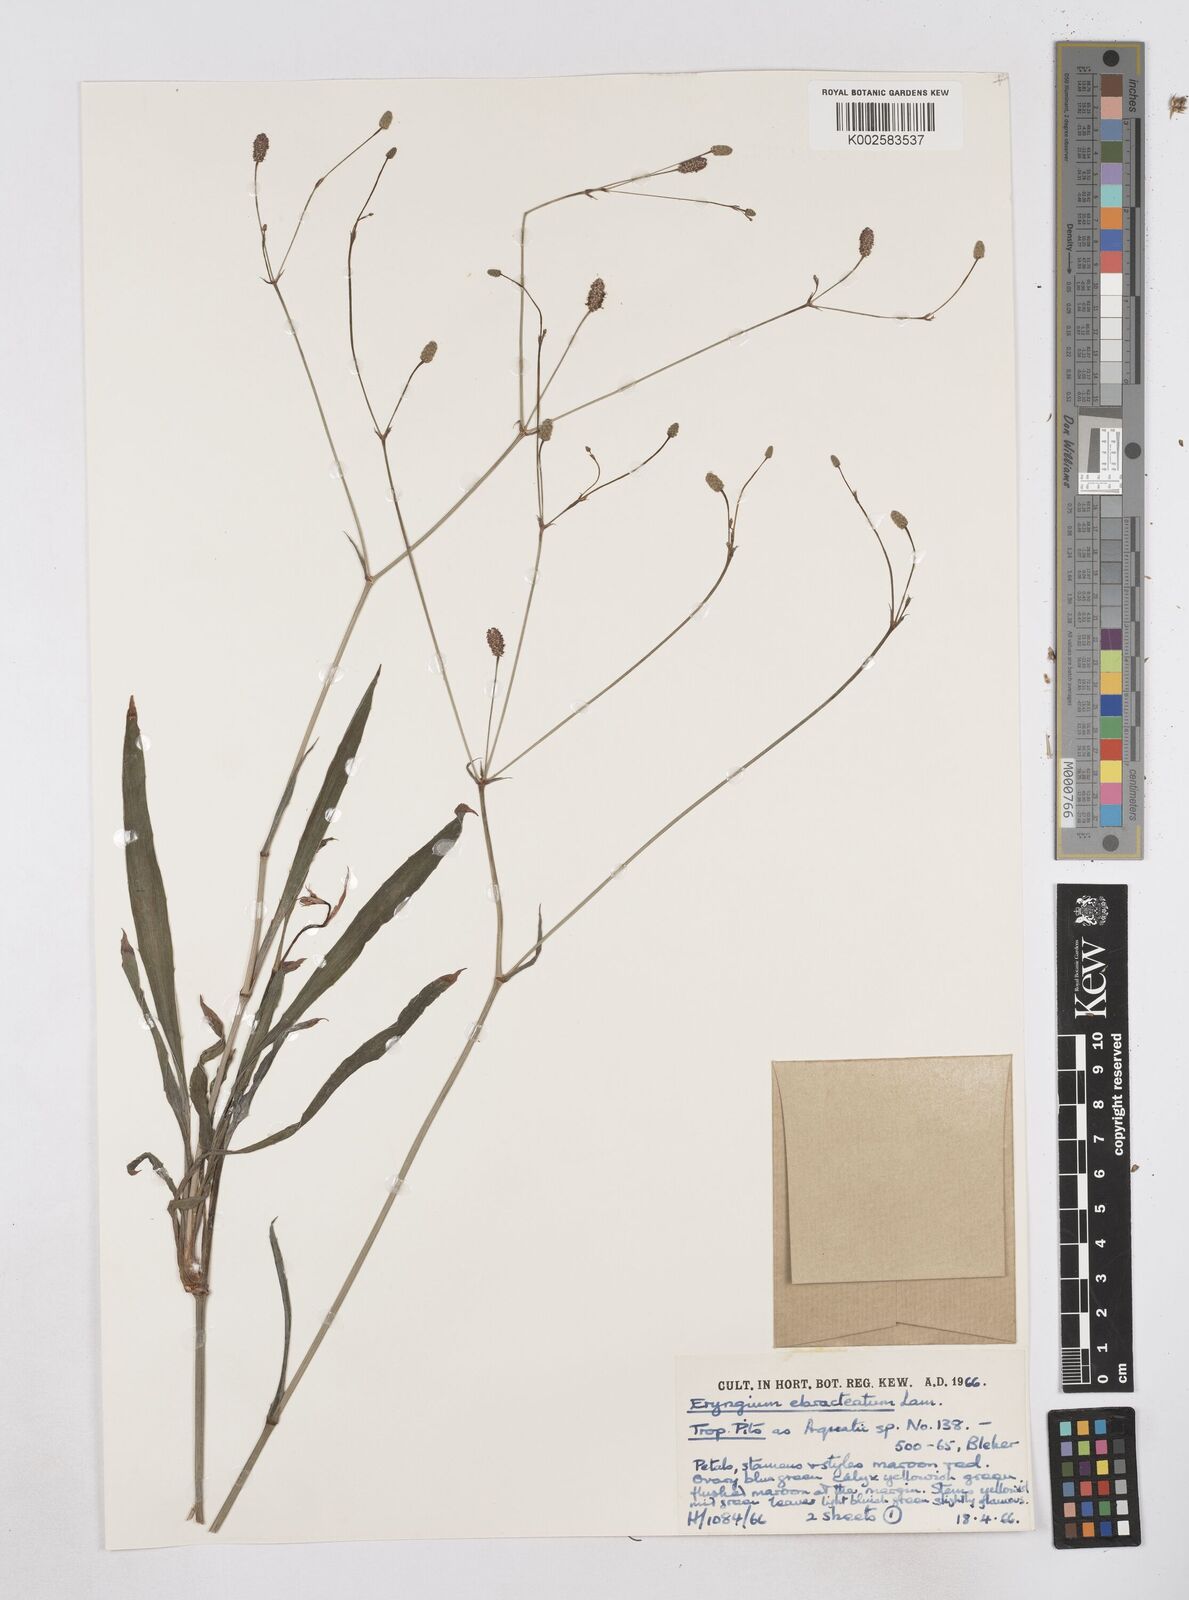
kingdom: Plantae
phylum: Tracheophyta
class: Magnoliopsida
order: Apiales
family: Apiaceae
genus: Eryngium
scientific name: Eryngium ebracteatum
